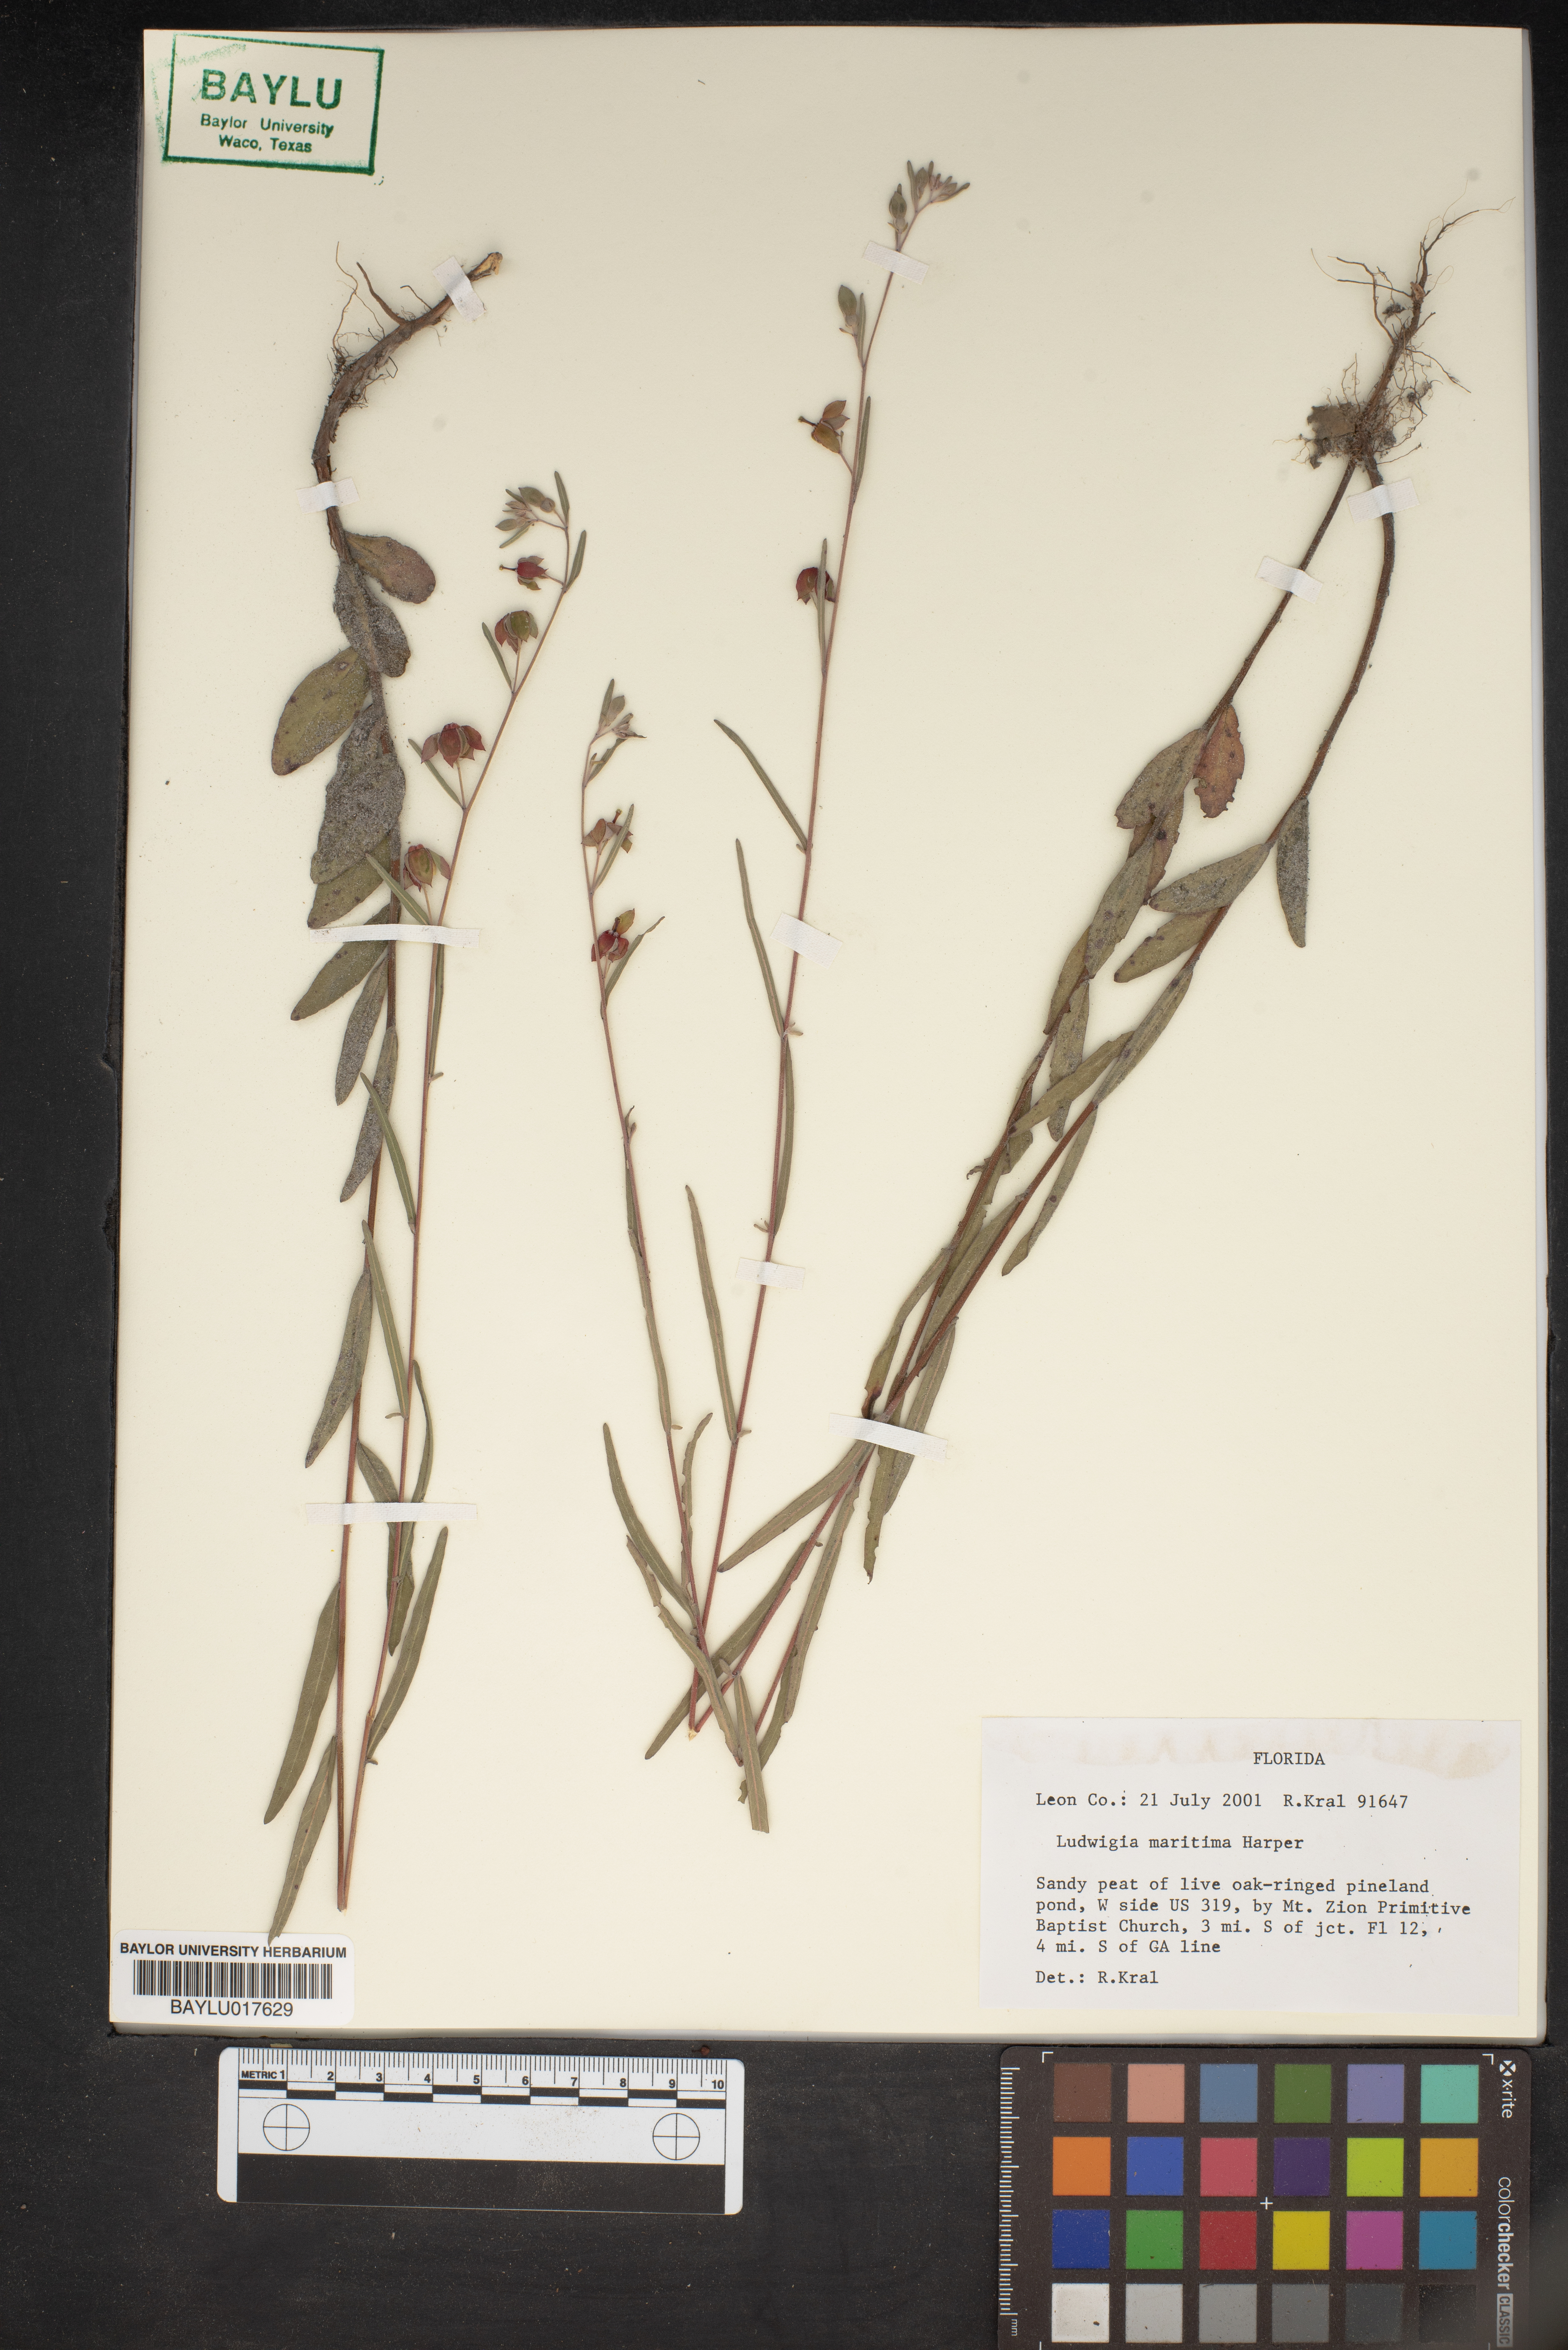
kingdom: Plantae
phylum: Tracheophyta
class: Magnoliopsida
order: Myrtales
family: Onagraceae
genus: Ludwigia
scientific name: Ludwigia maritima
